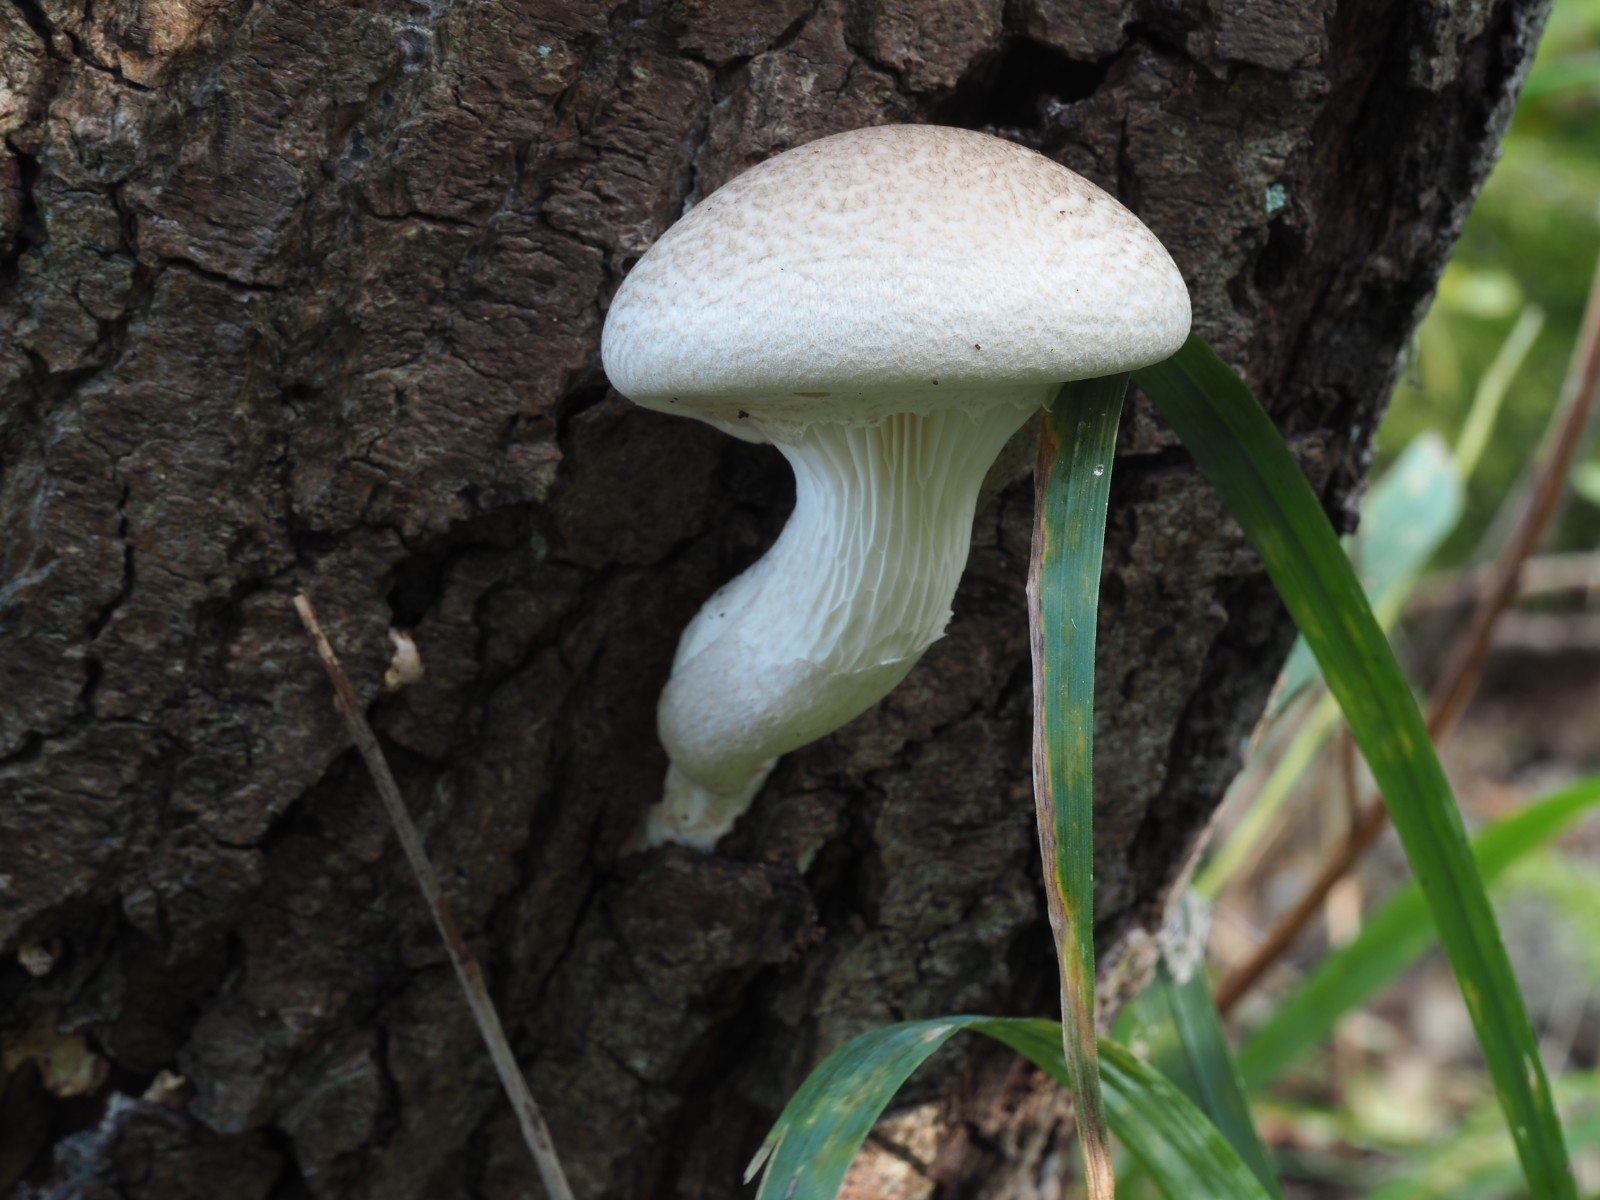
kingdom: Fungi
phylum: Basidiomycota
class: Agaricomycetes
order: Agaricales
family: Pleurotaceae
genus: Pleurotus
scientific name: Pleurotus dryinus
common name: korkagtig østershat
